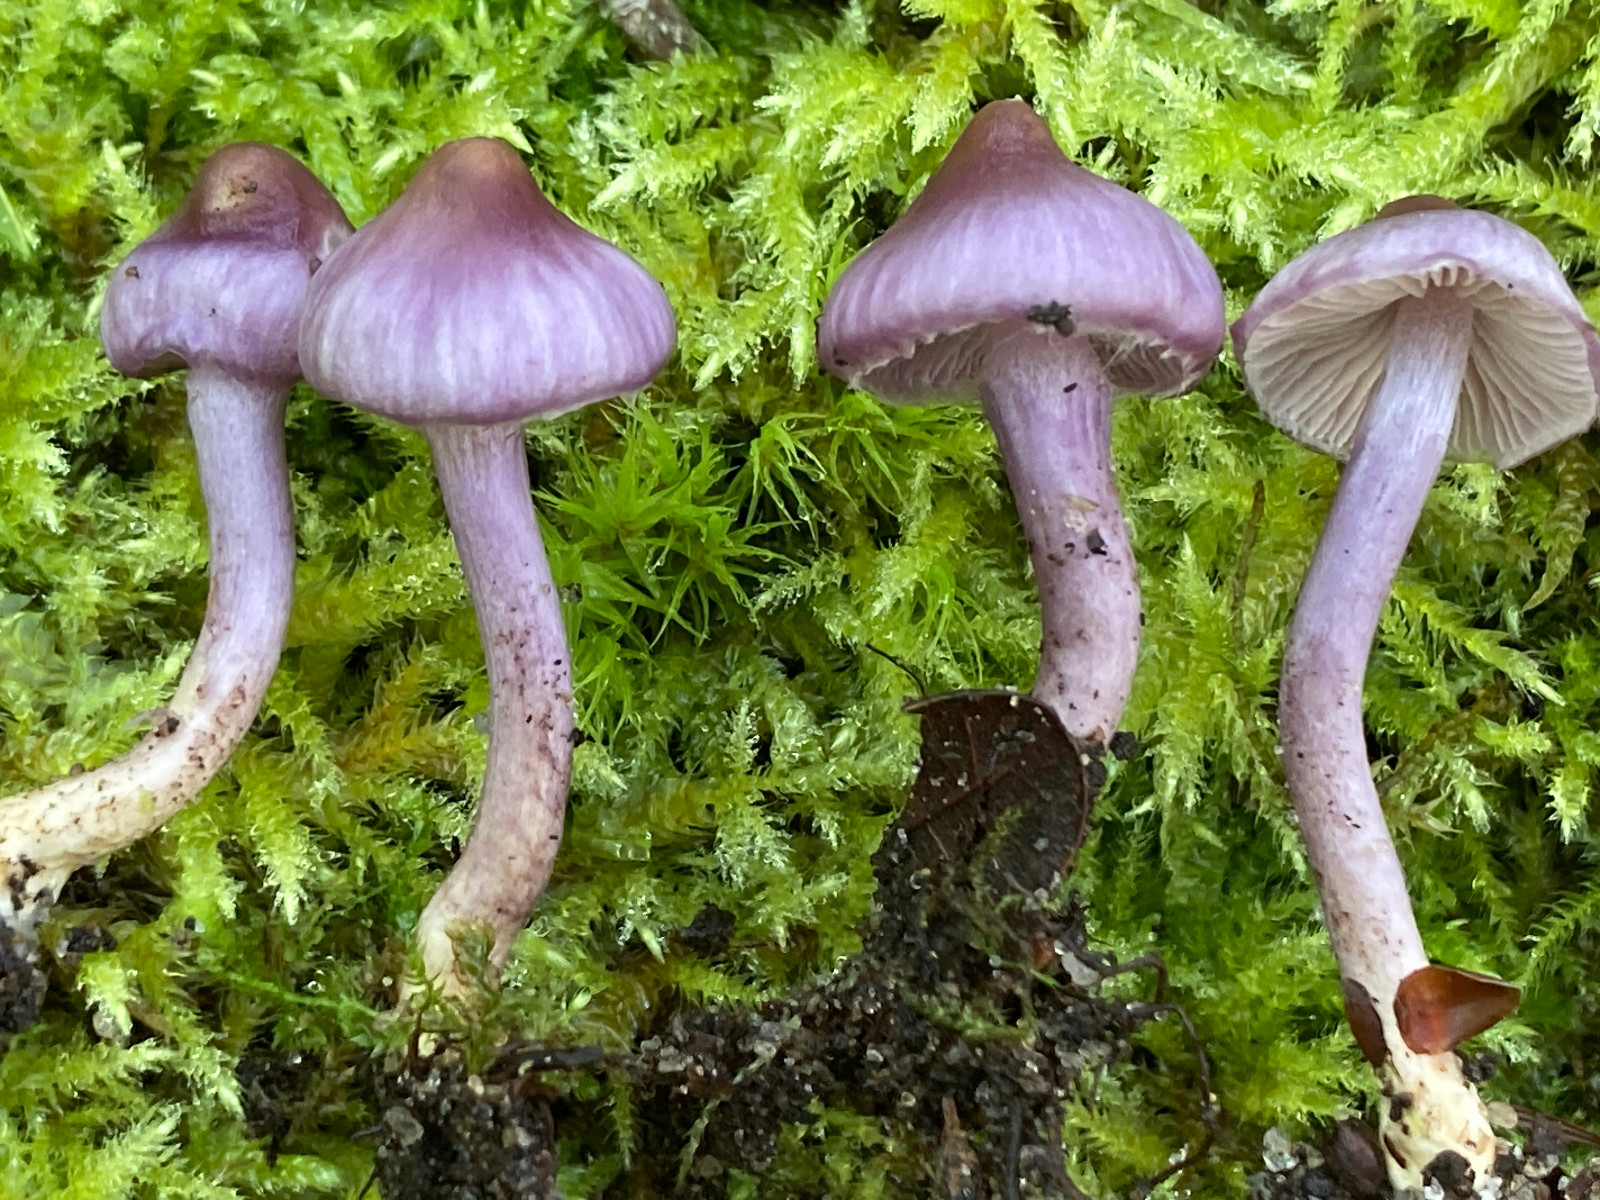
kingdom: Fungi
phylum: Basidiomycota
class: Agaricomycetes
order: Agaricales
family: Inocybaceae
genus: Inocybe
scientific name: Inocybe geophylla
